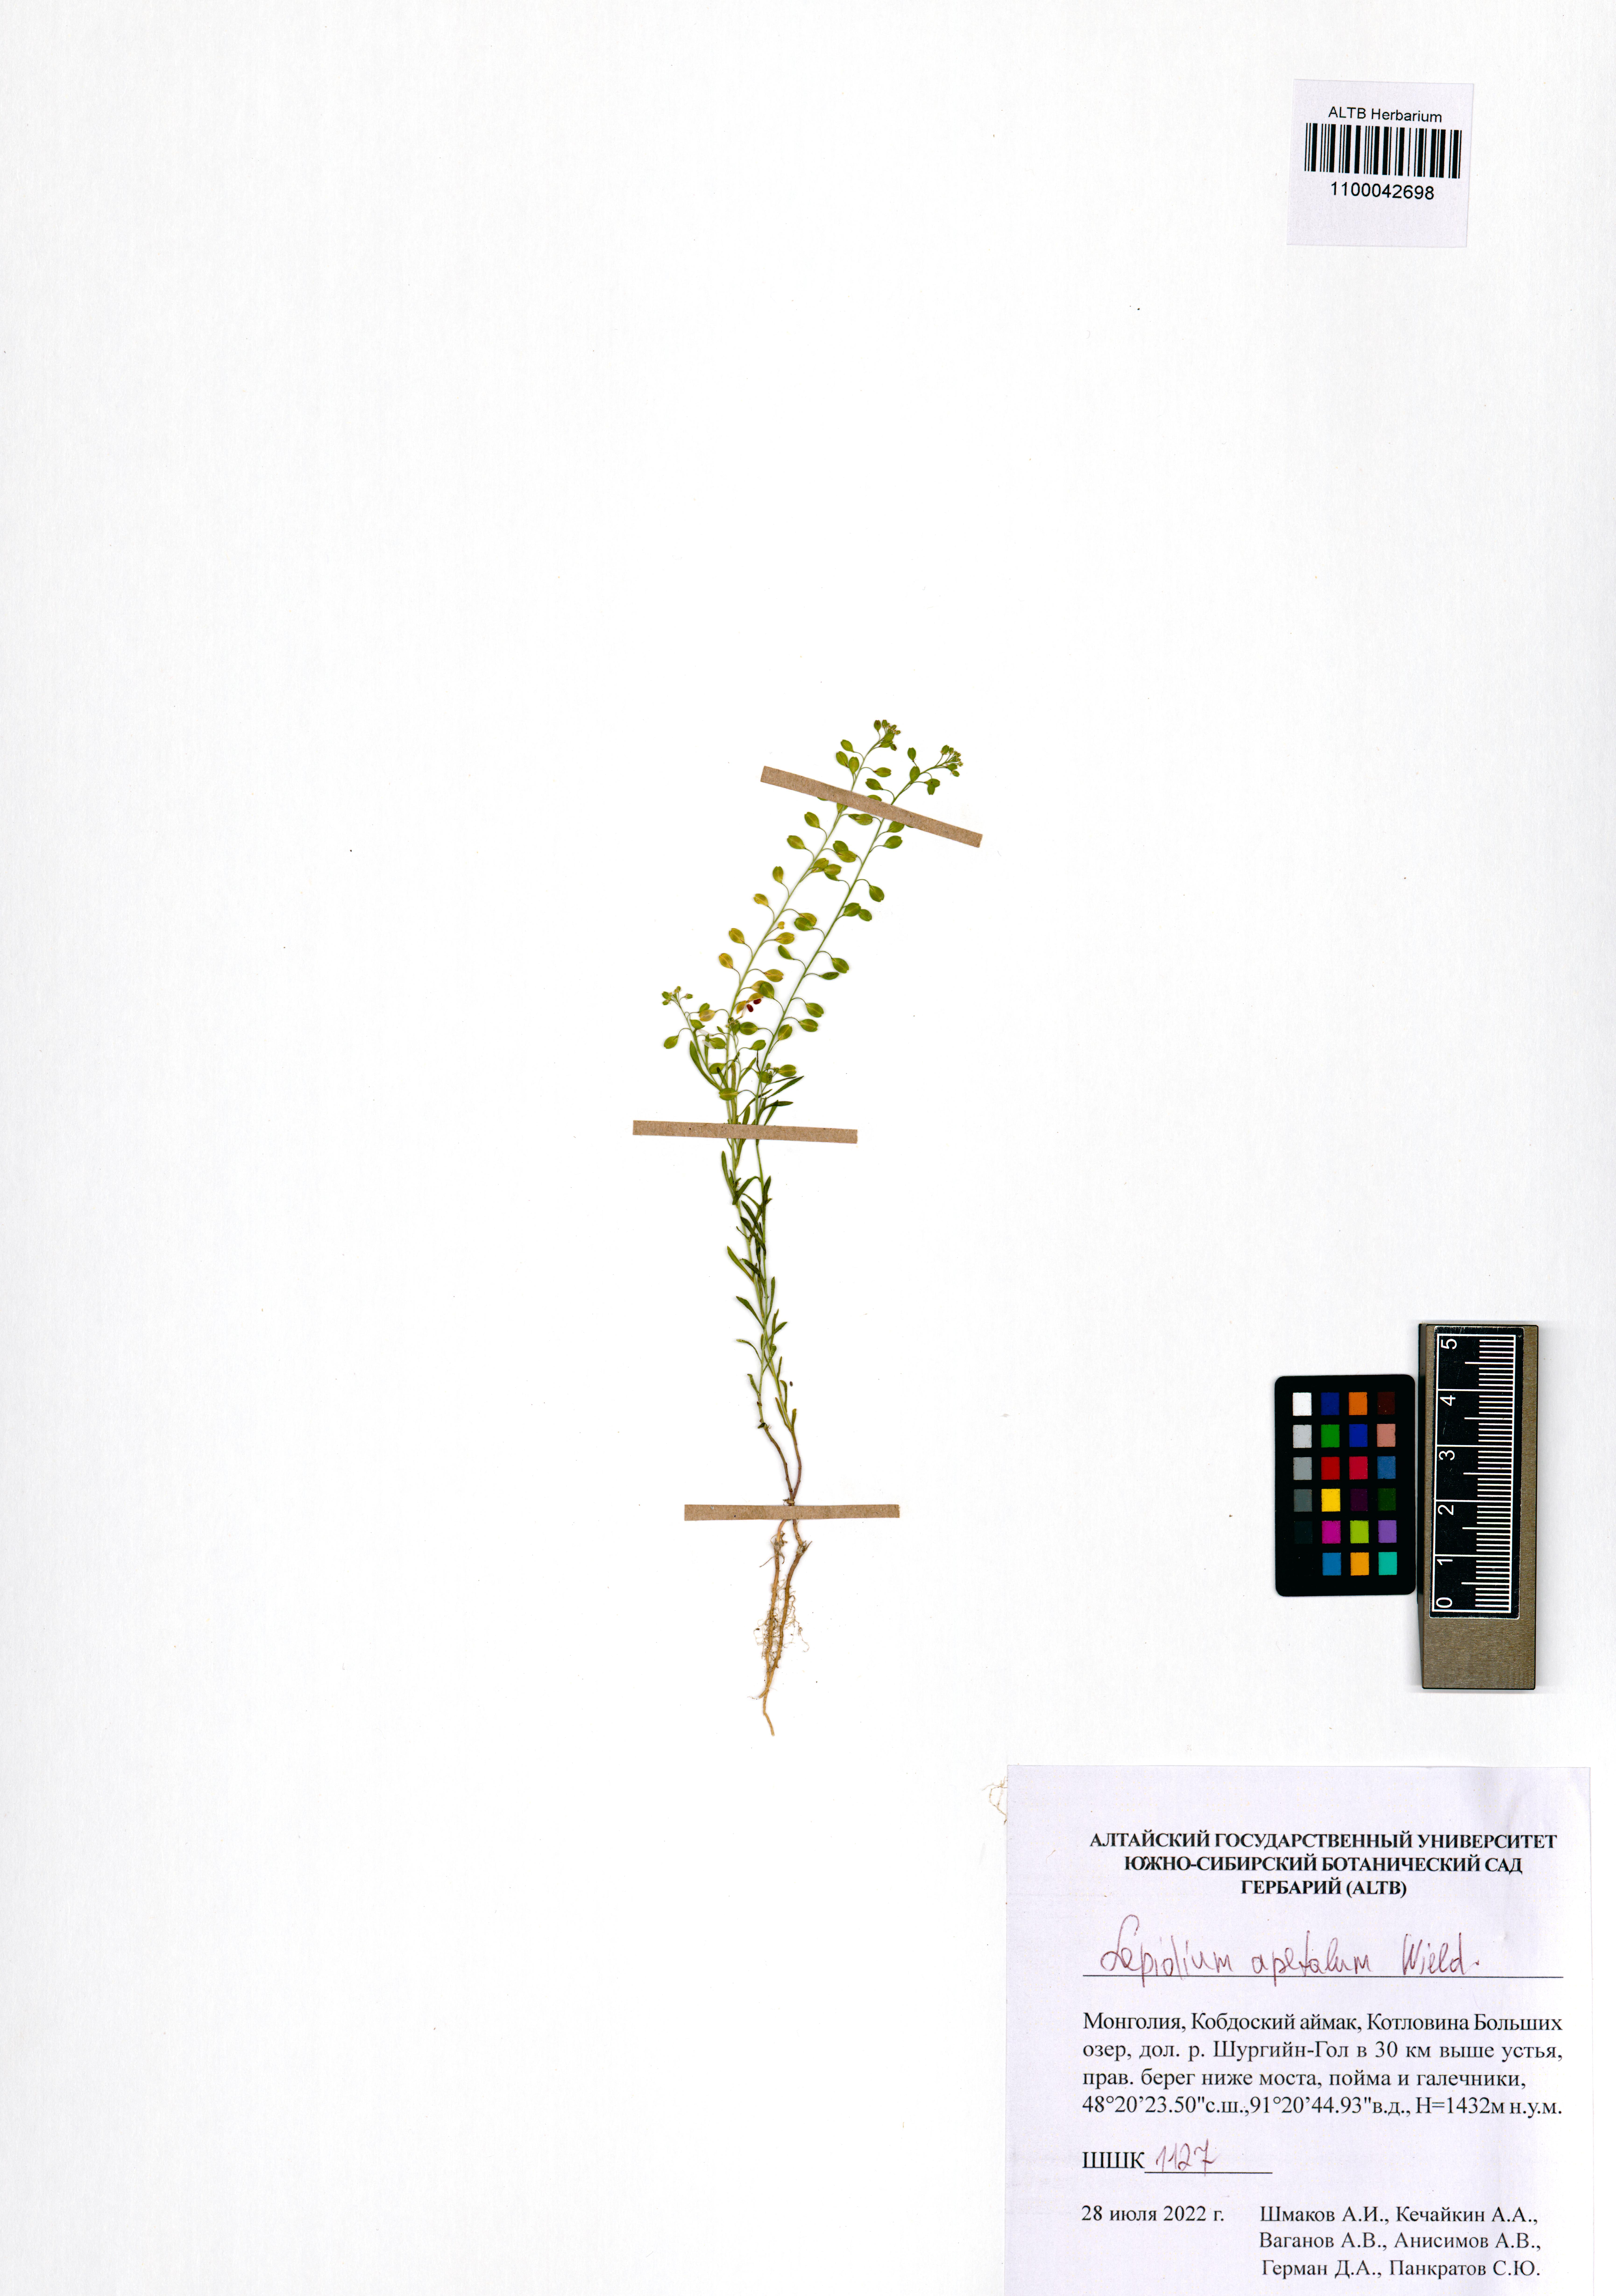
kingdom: Plantae
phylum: Tracheophyta
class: Magnoliopsida
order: Brassicales
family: Brassicaceae
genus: Lepidium
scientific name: Lepidium apetalum
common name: Pepperweed
